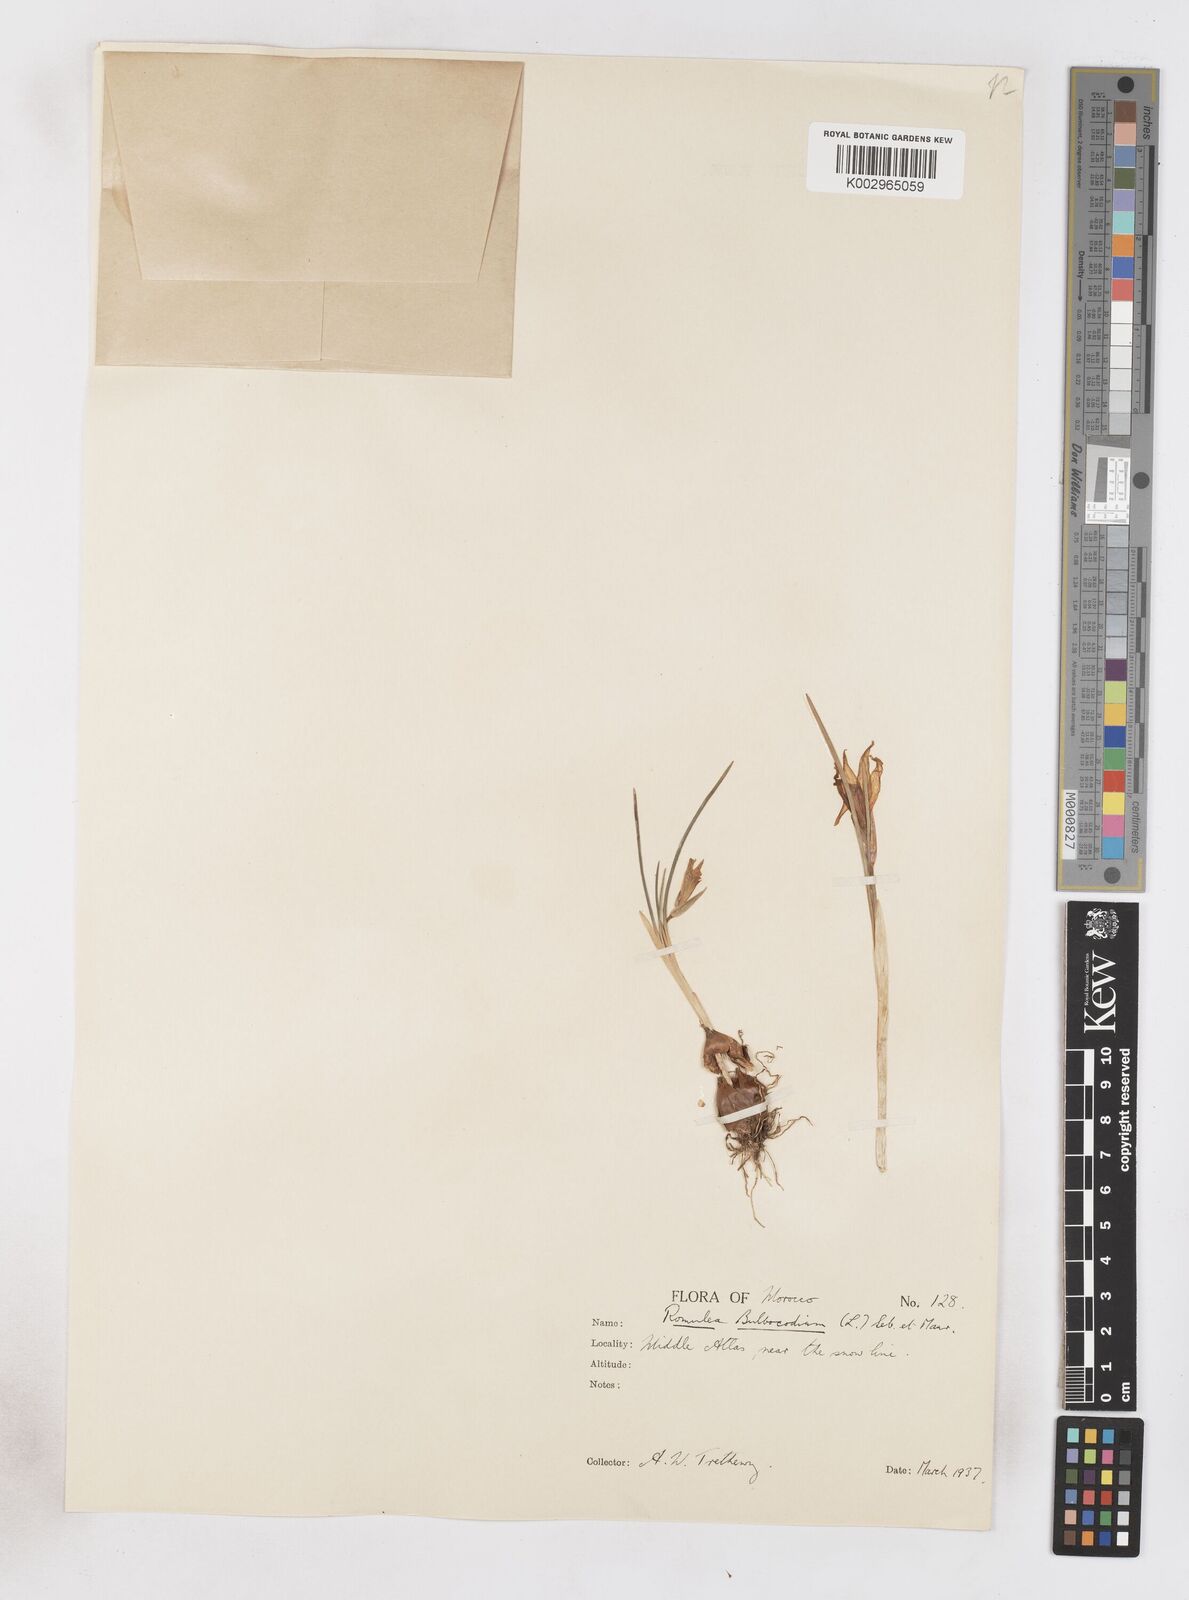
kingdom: Plantae
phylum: Tracheophyta
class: Liliopsida
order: Asparagales
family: Iridaceae
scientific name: Iridaceae
